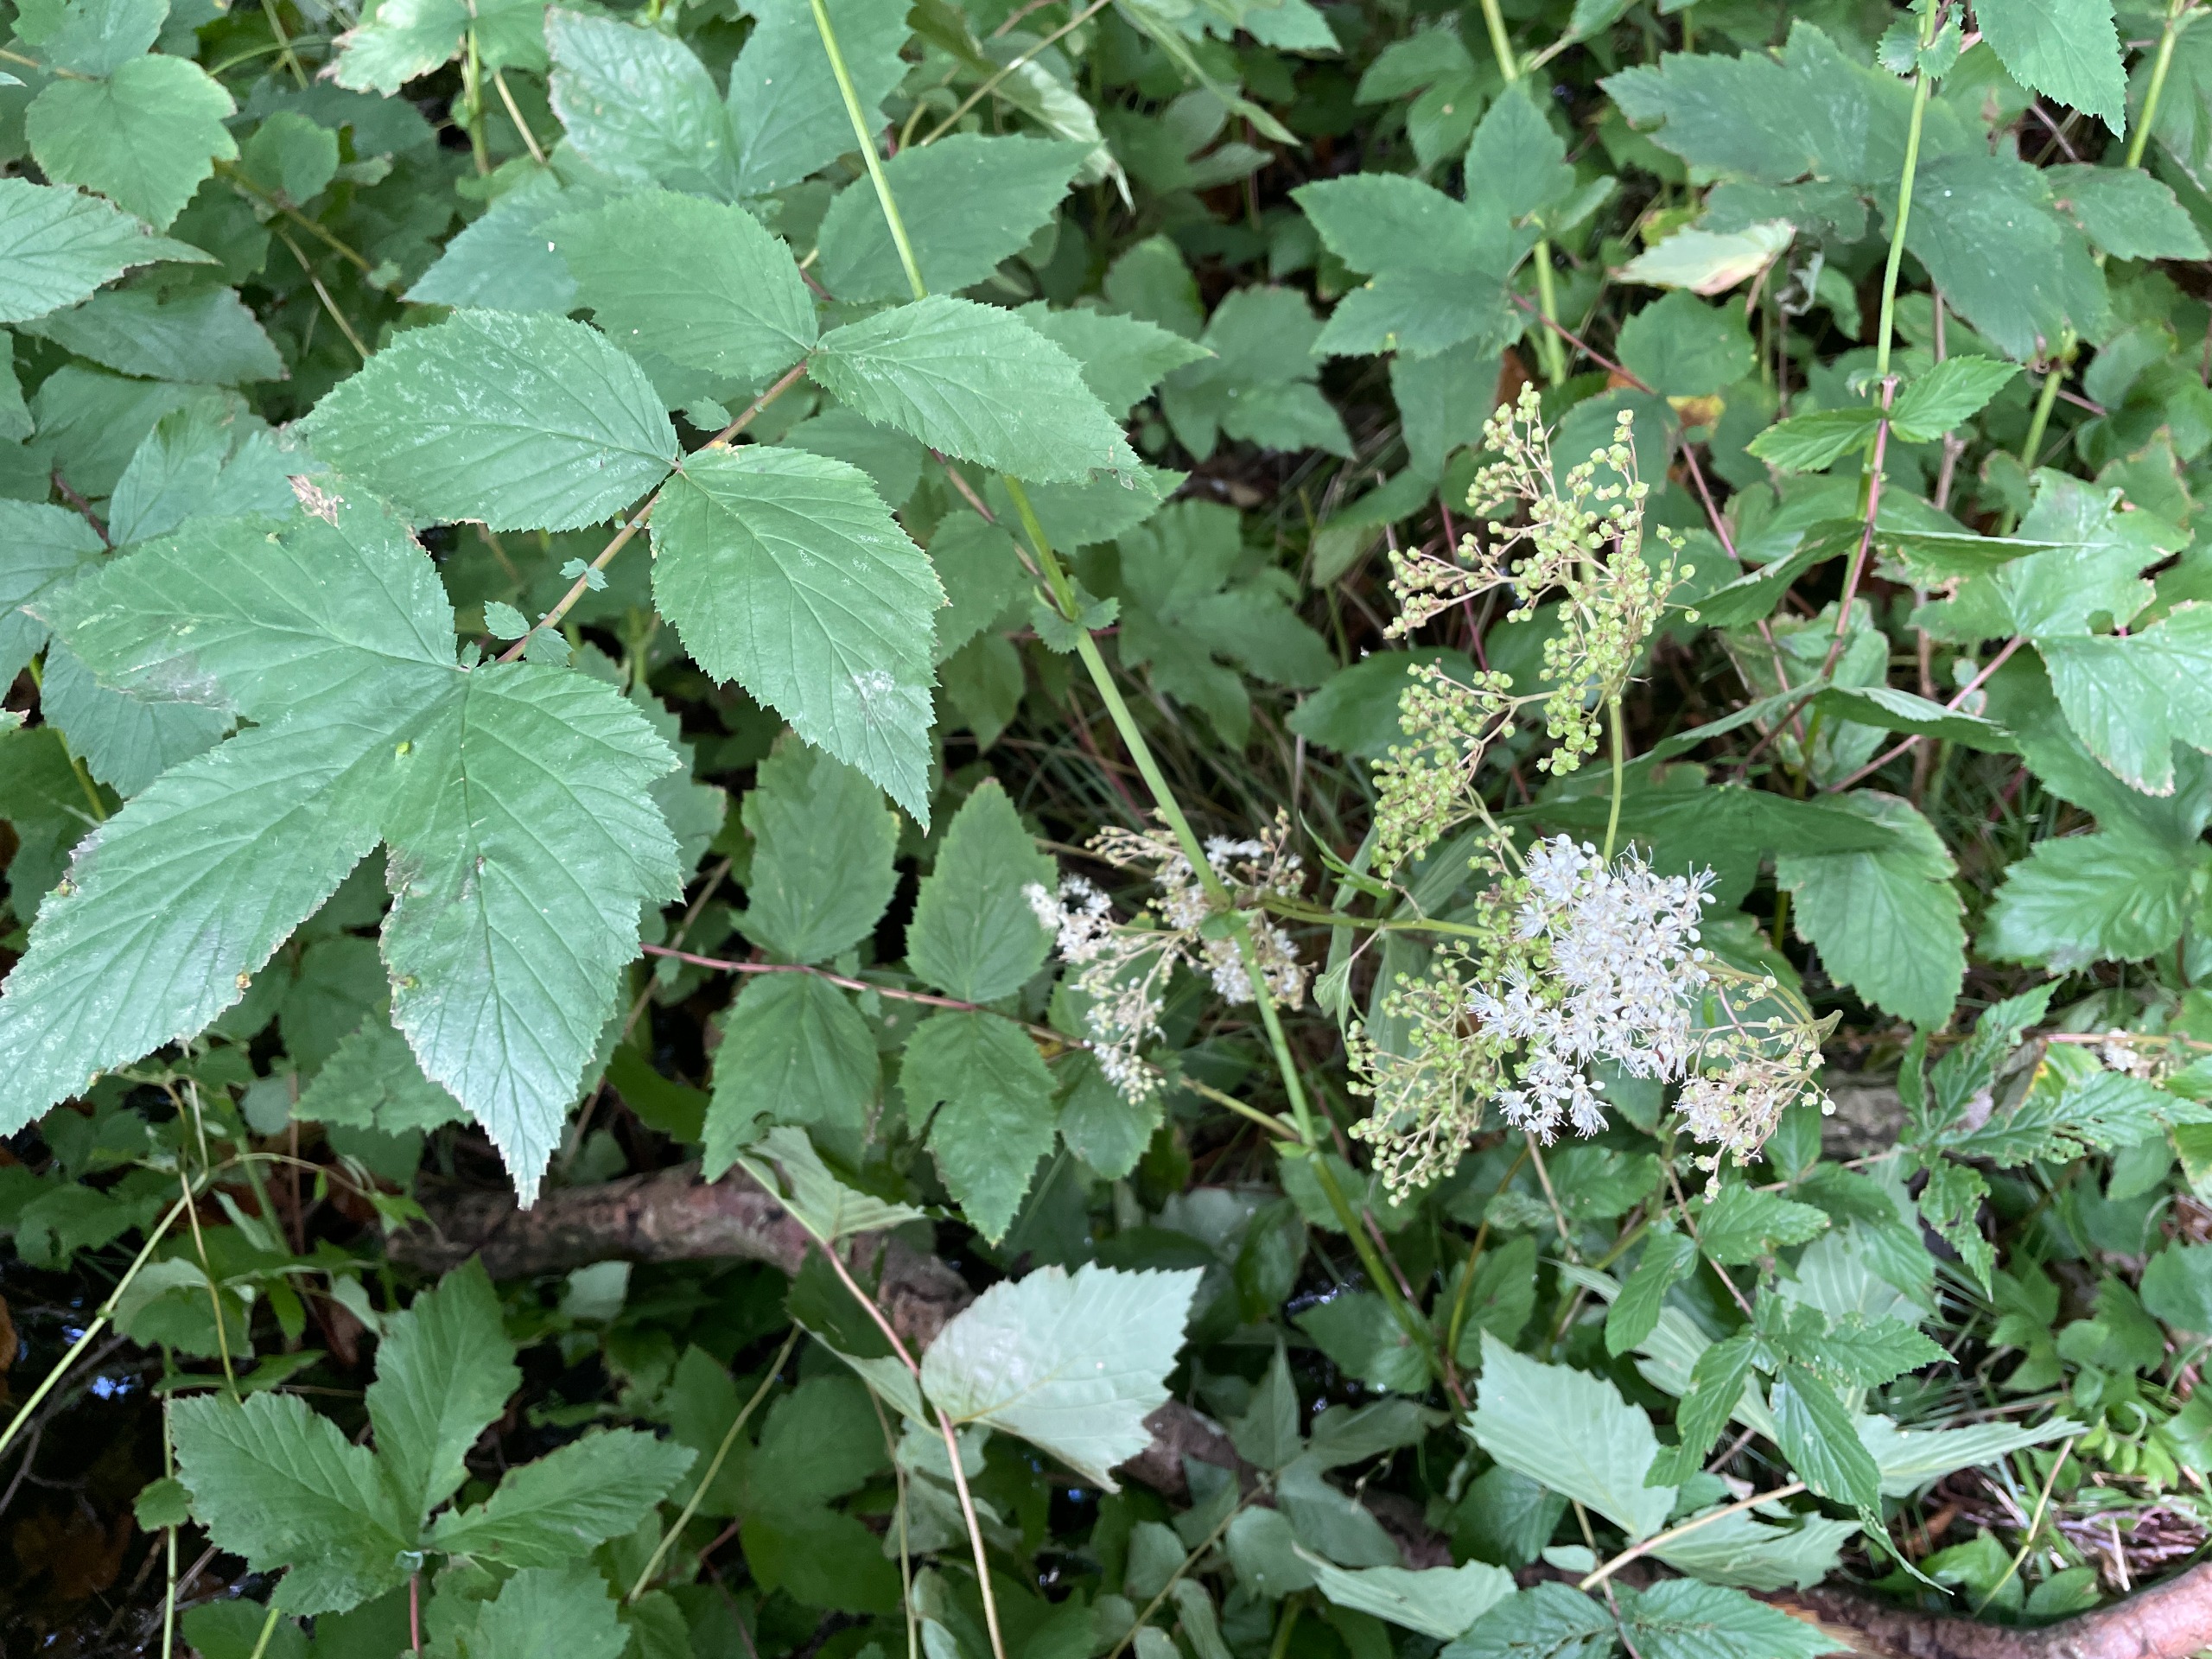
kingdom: Plantae
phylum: Tracheophyta
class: Magnoliopsida
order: Rosales
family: Rosaceae
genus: Filipendula
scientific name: Filipendula ulmaria
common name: Almindelig mjødurt
